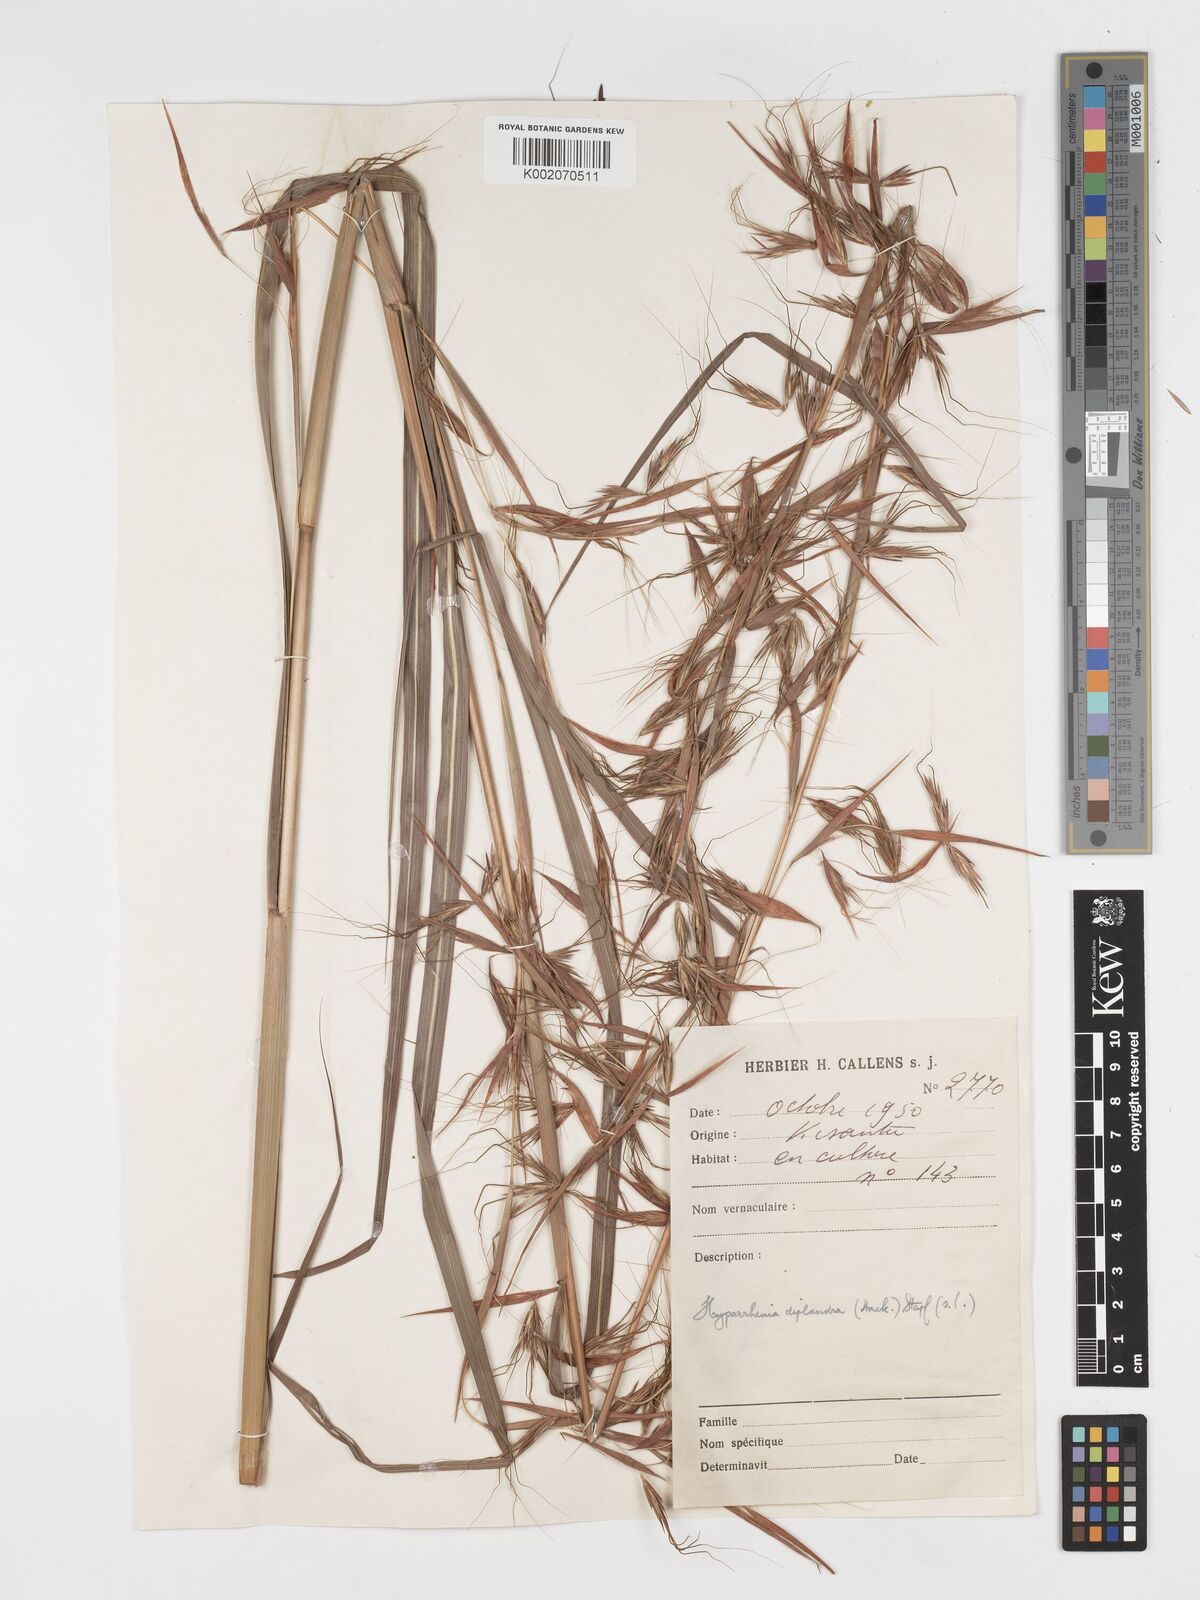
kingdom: Plantae
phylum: Tracheophyta
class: Liliopsida
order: Poales
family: Poaceae
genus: Hyparrhenia
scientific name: Hyparrhenia diplandra
